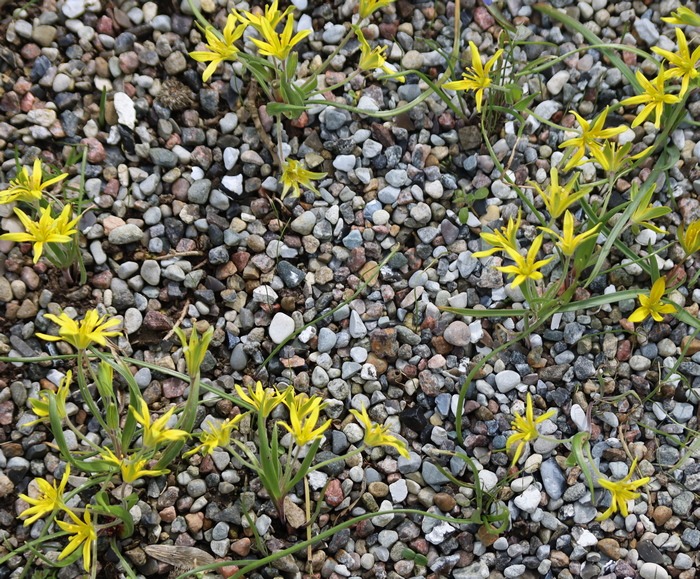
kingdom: Plantae
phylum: Tracheophyta
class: Liliopsida
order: Liliales
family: Liliaceae
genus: Gagea
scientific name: Gagea villosa
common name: Ager-guldstjerne
